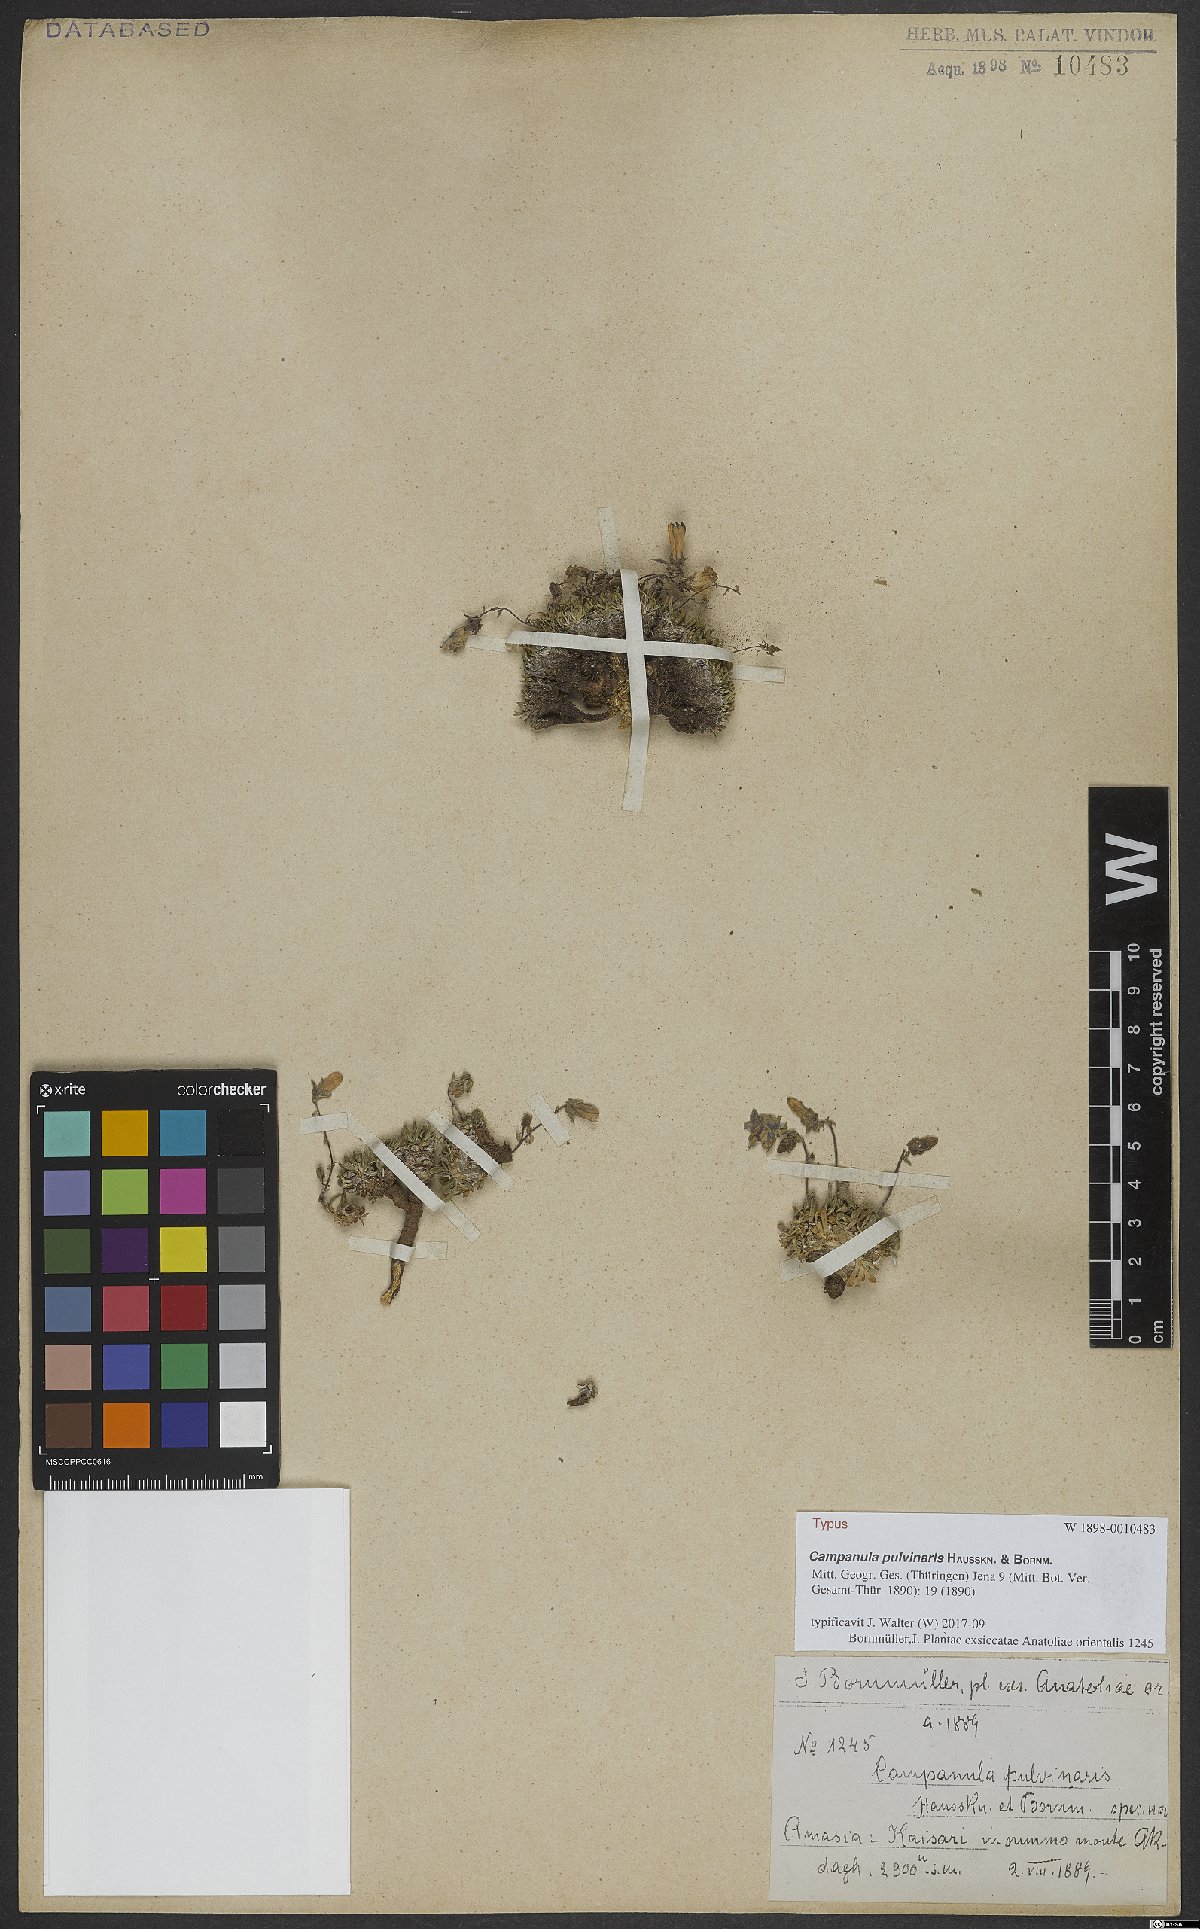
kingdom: Plantae
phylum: Tracheophyta
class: Magnoliopsida
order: Asterales
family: Campanulaceae
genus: Campanula
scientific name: Campanula pulvinaris
